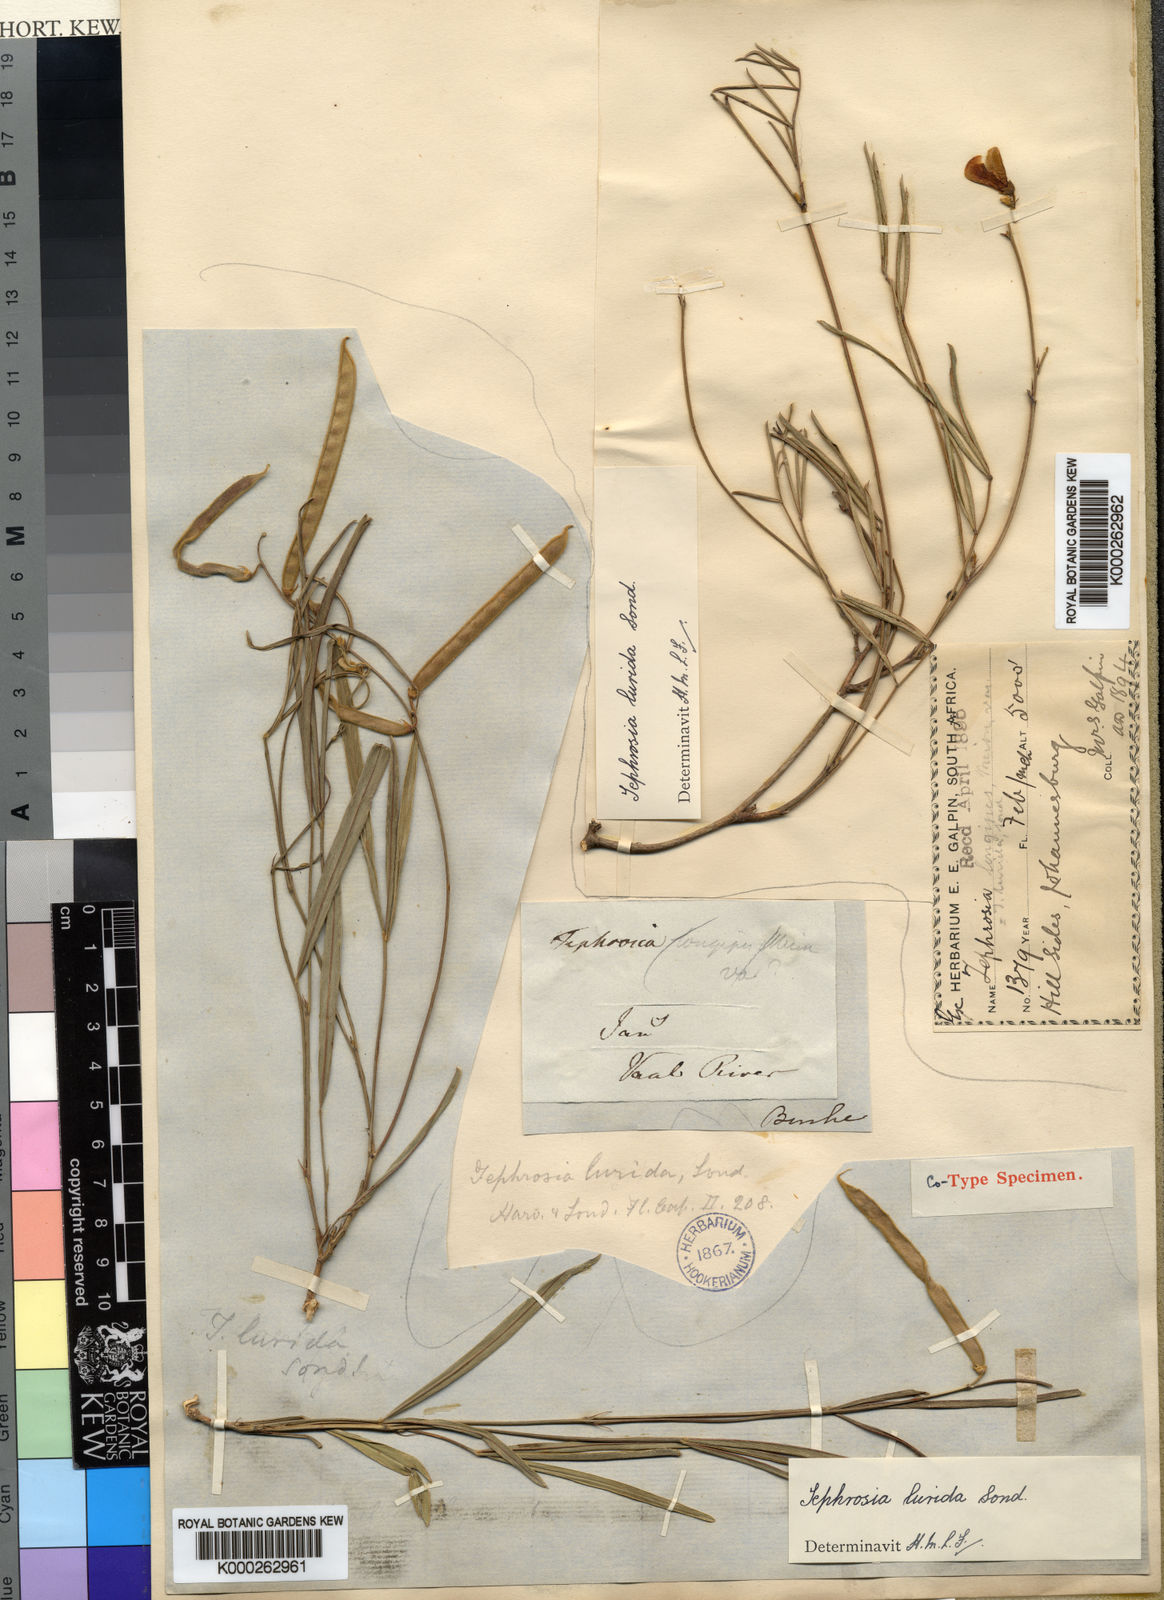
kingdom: Plantae
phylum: Tracheophyta
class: Magnoliopsida
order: Fabales
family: Fabaceae
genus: Tephrosia
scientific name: Tephrosia longipes
